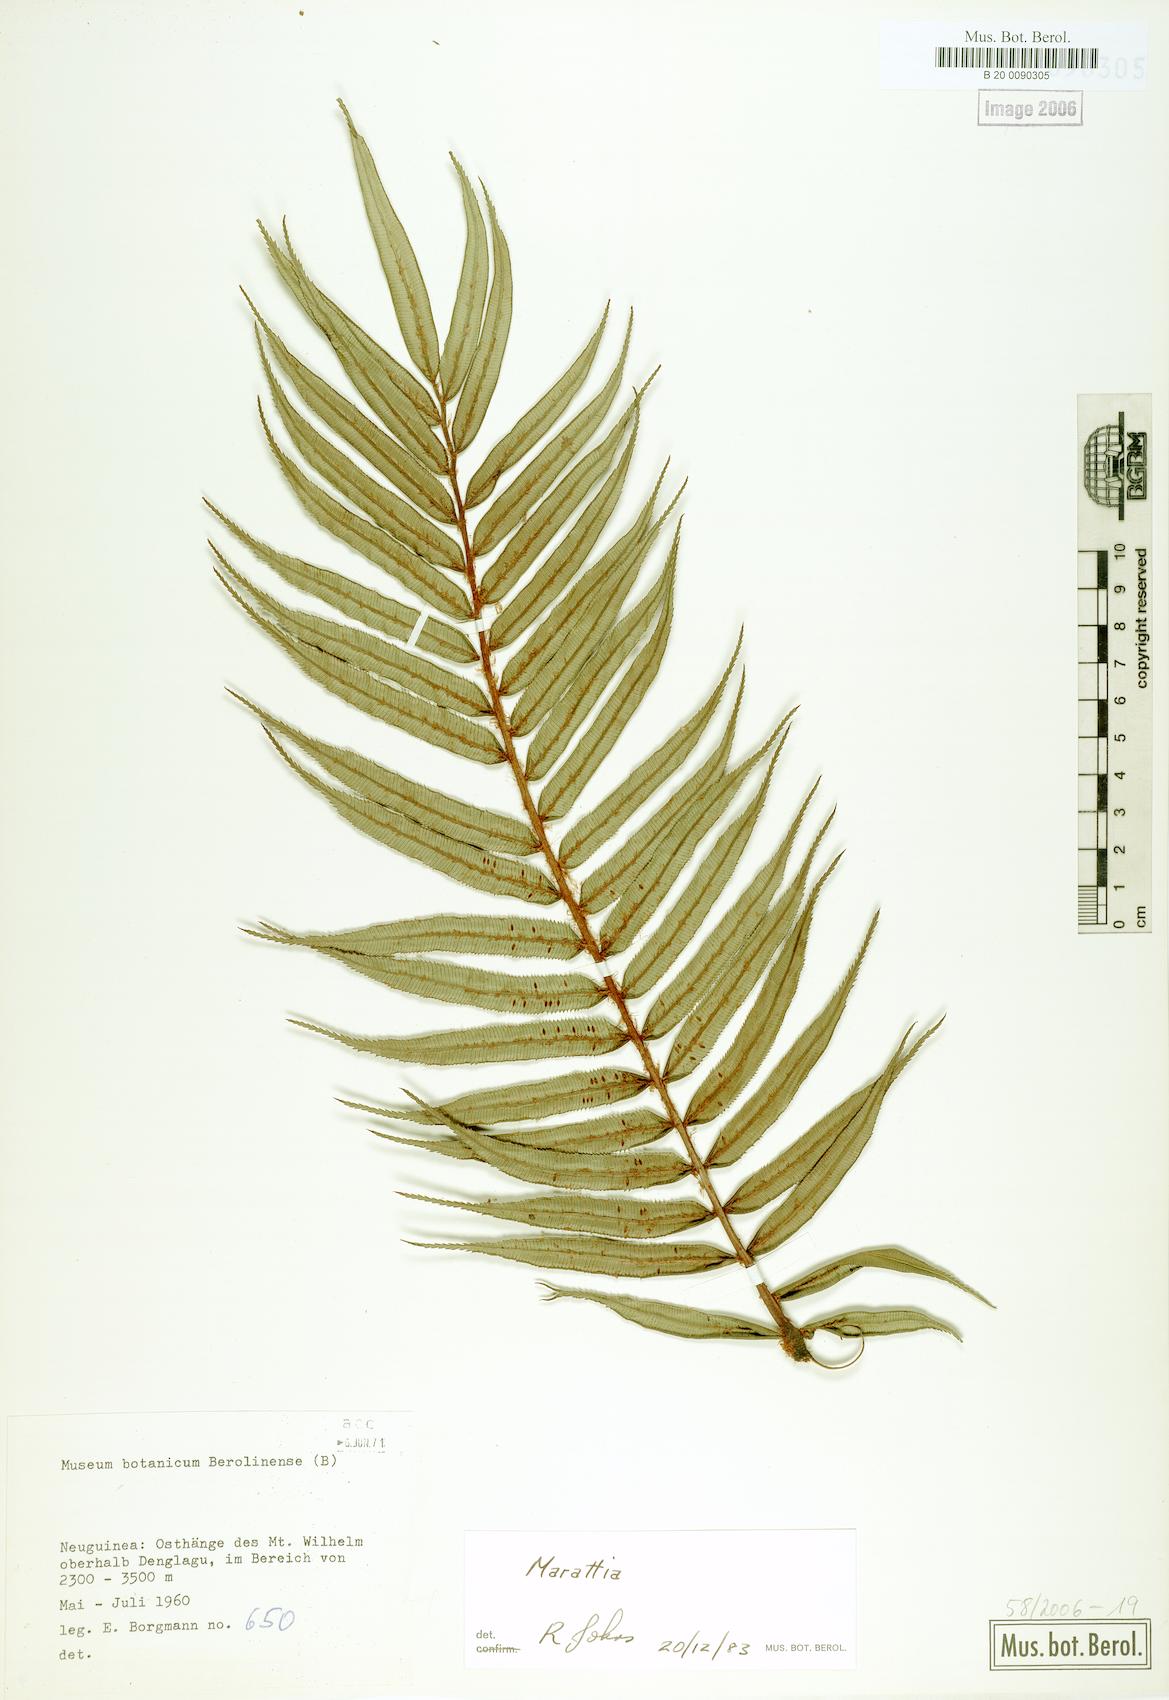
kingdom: Plantae
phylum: Tracheophyta
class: Polypodiopsida
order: Marattiales
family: Marattiaceae
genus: Marattia
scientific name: Marattia
